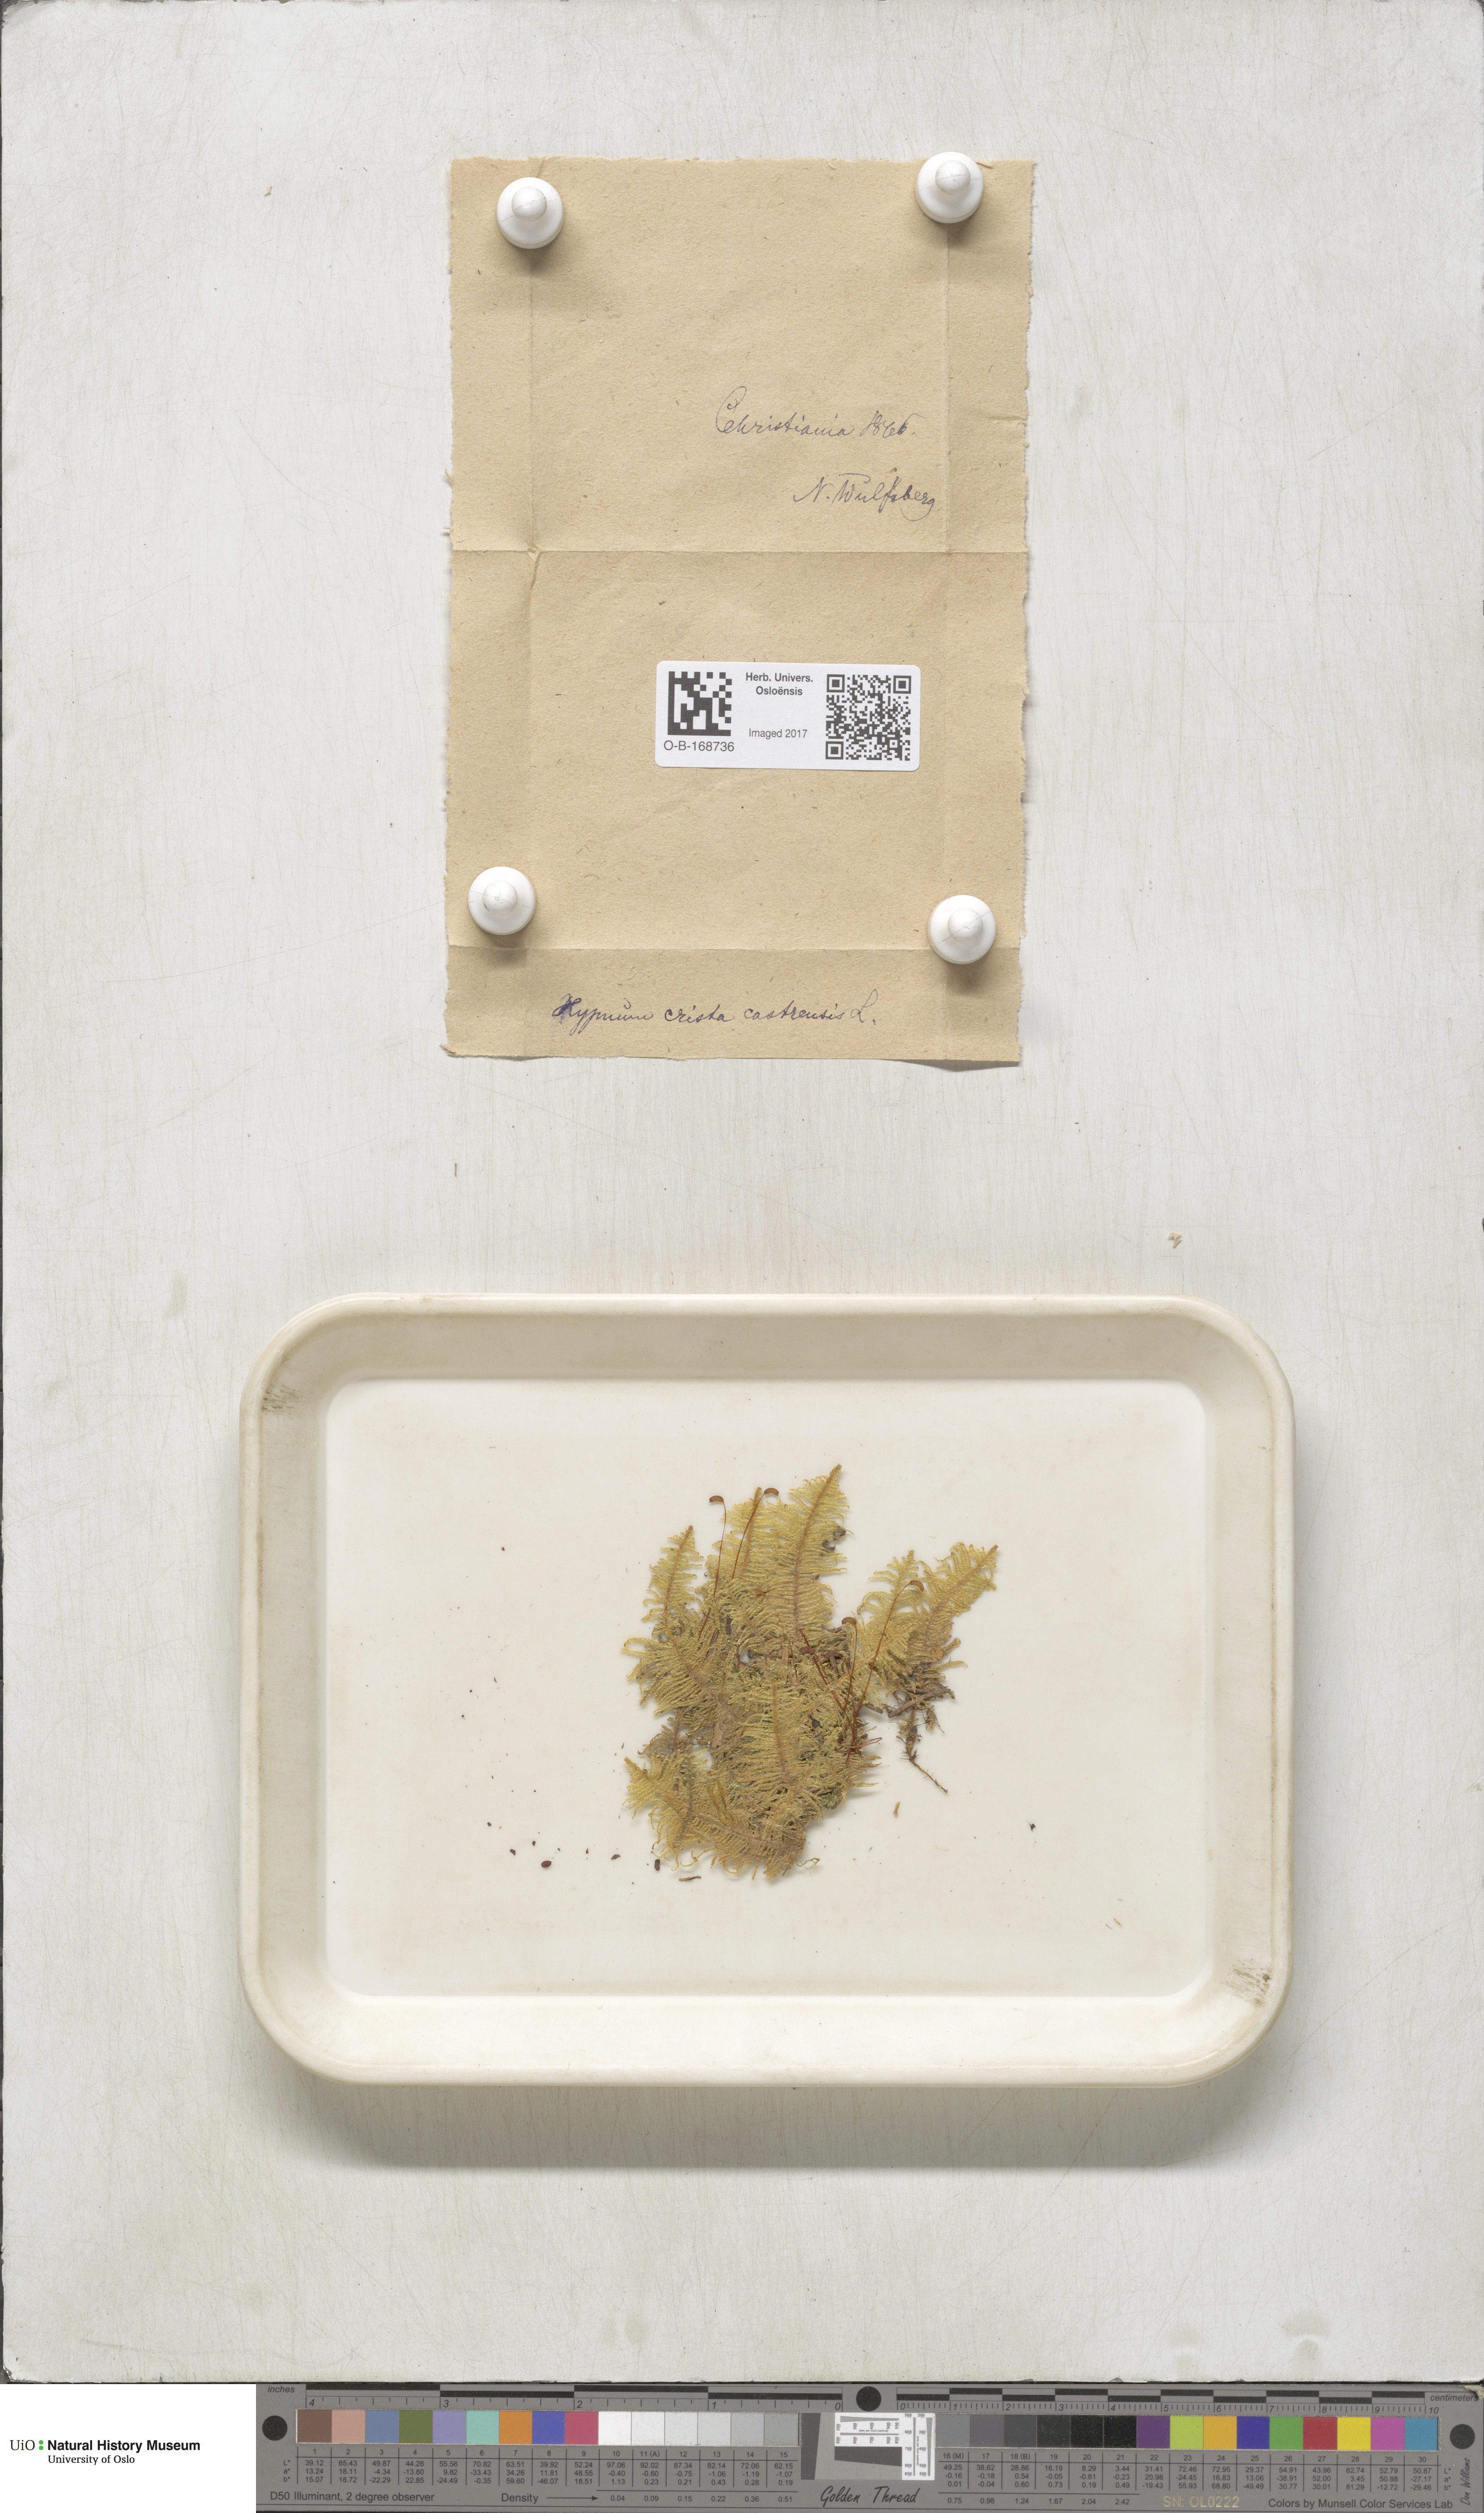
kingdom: Plantae
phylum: Bryophyta
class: Bryopsida
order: Hypnales
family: Pylaisiaceae
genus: Ptilium
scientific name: Ptilium crista-castrensis
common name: Knight's plume moss
